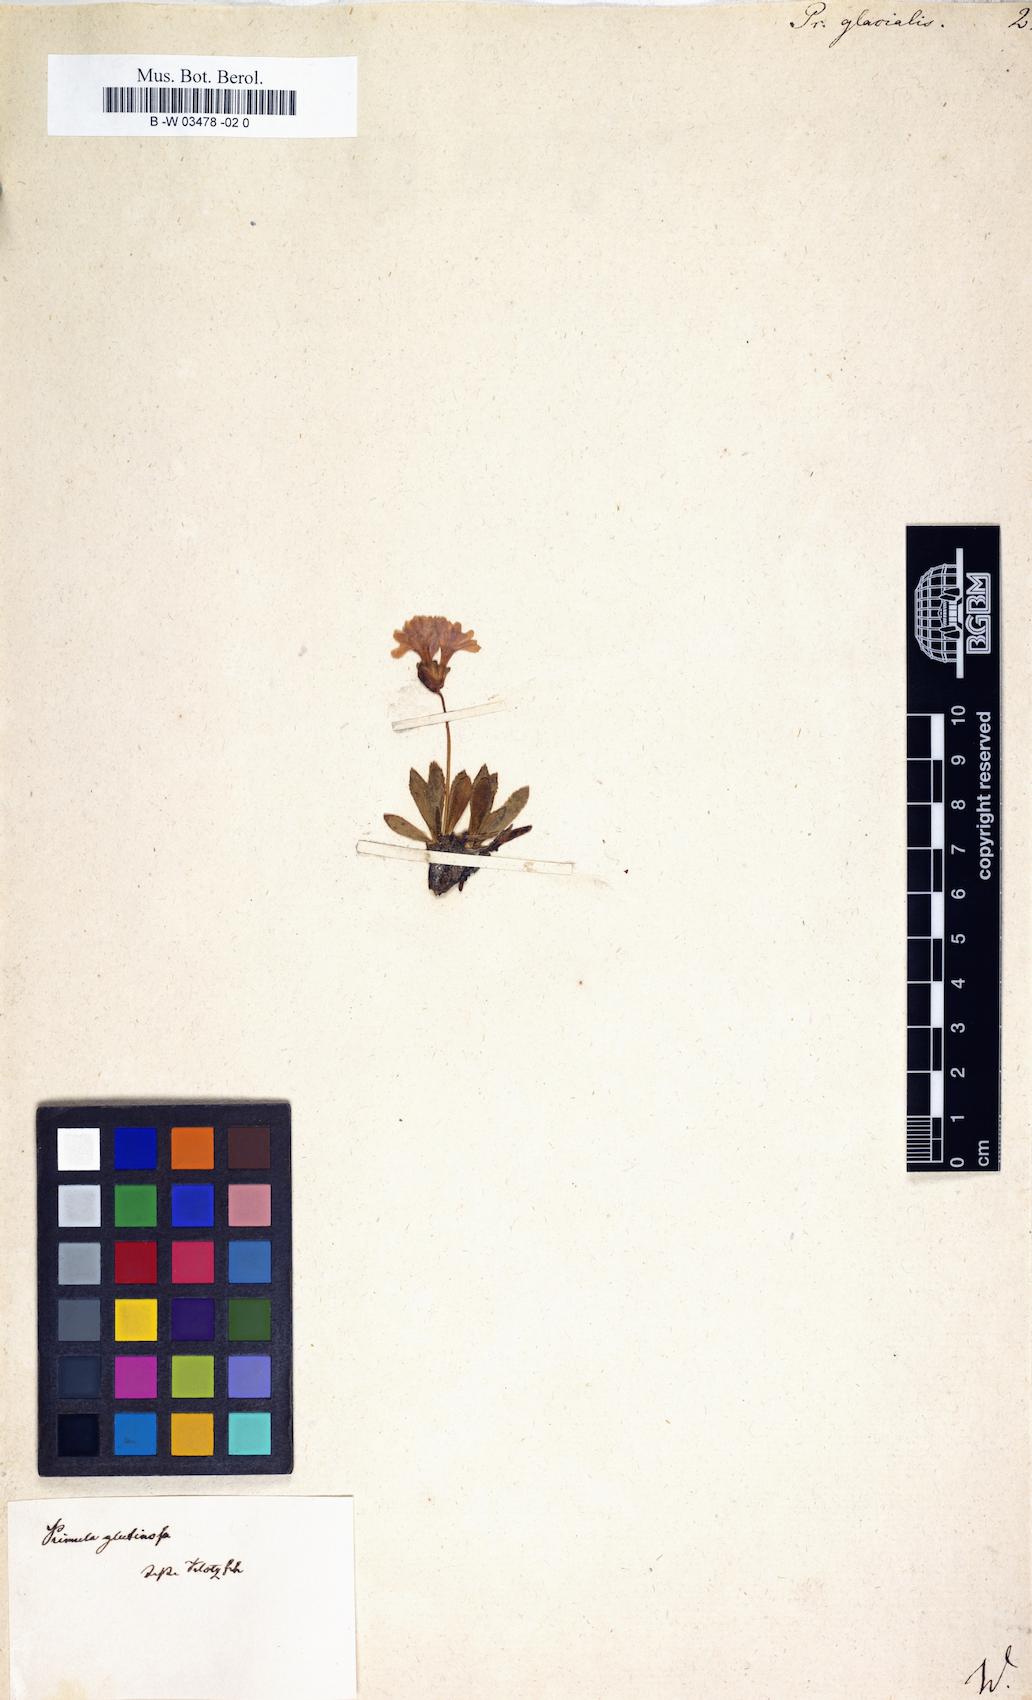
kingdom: Plantae
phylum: Tracheophyta
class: Magnoliopsida
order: Ericales
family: Primulaceae
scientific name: Primulaceae
